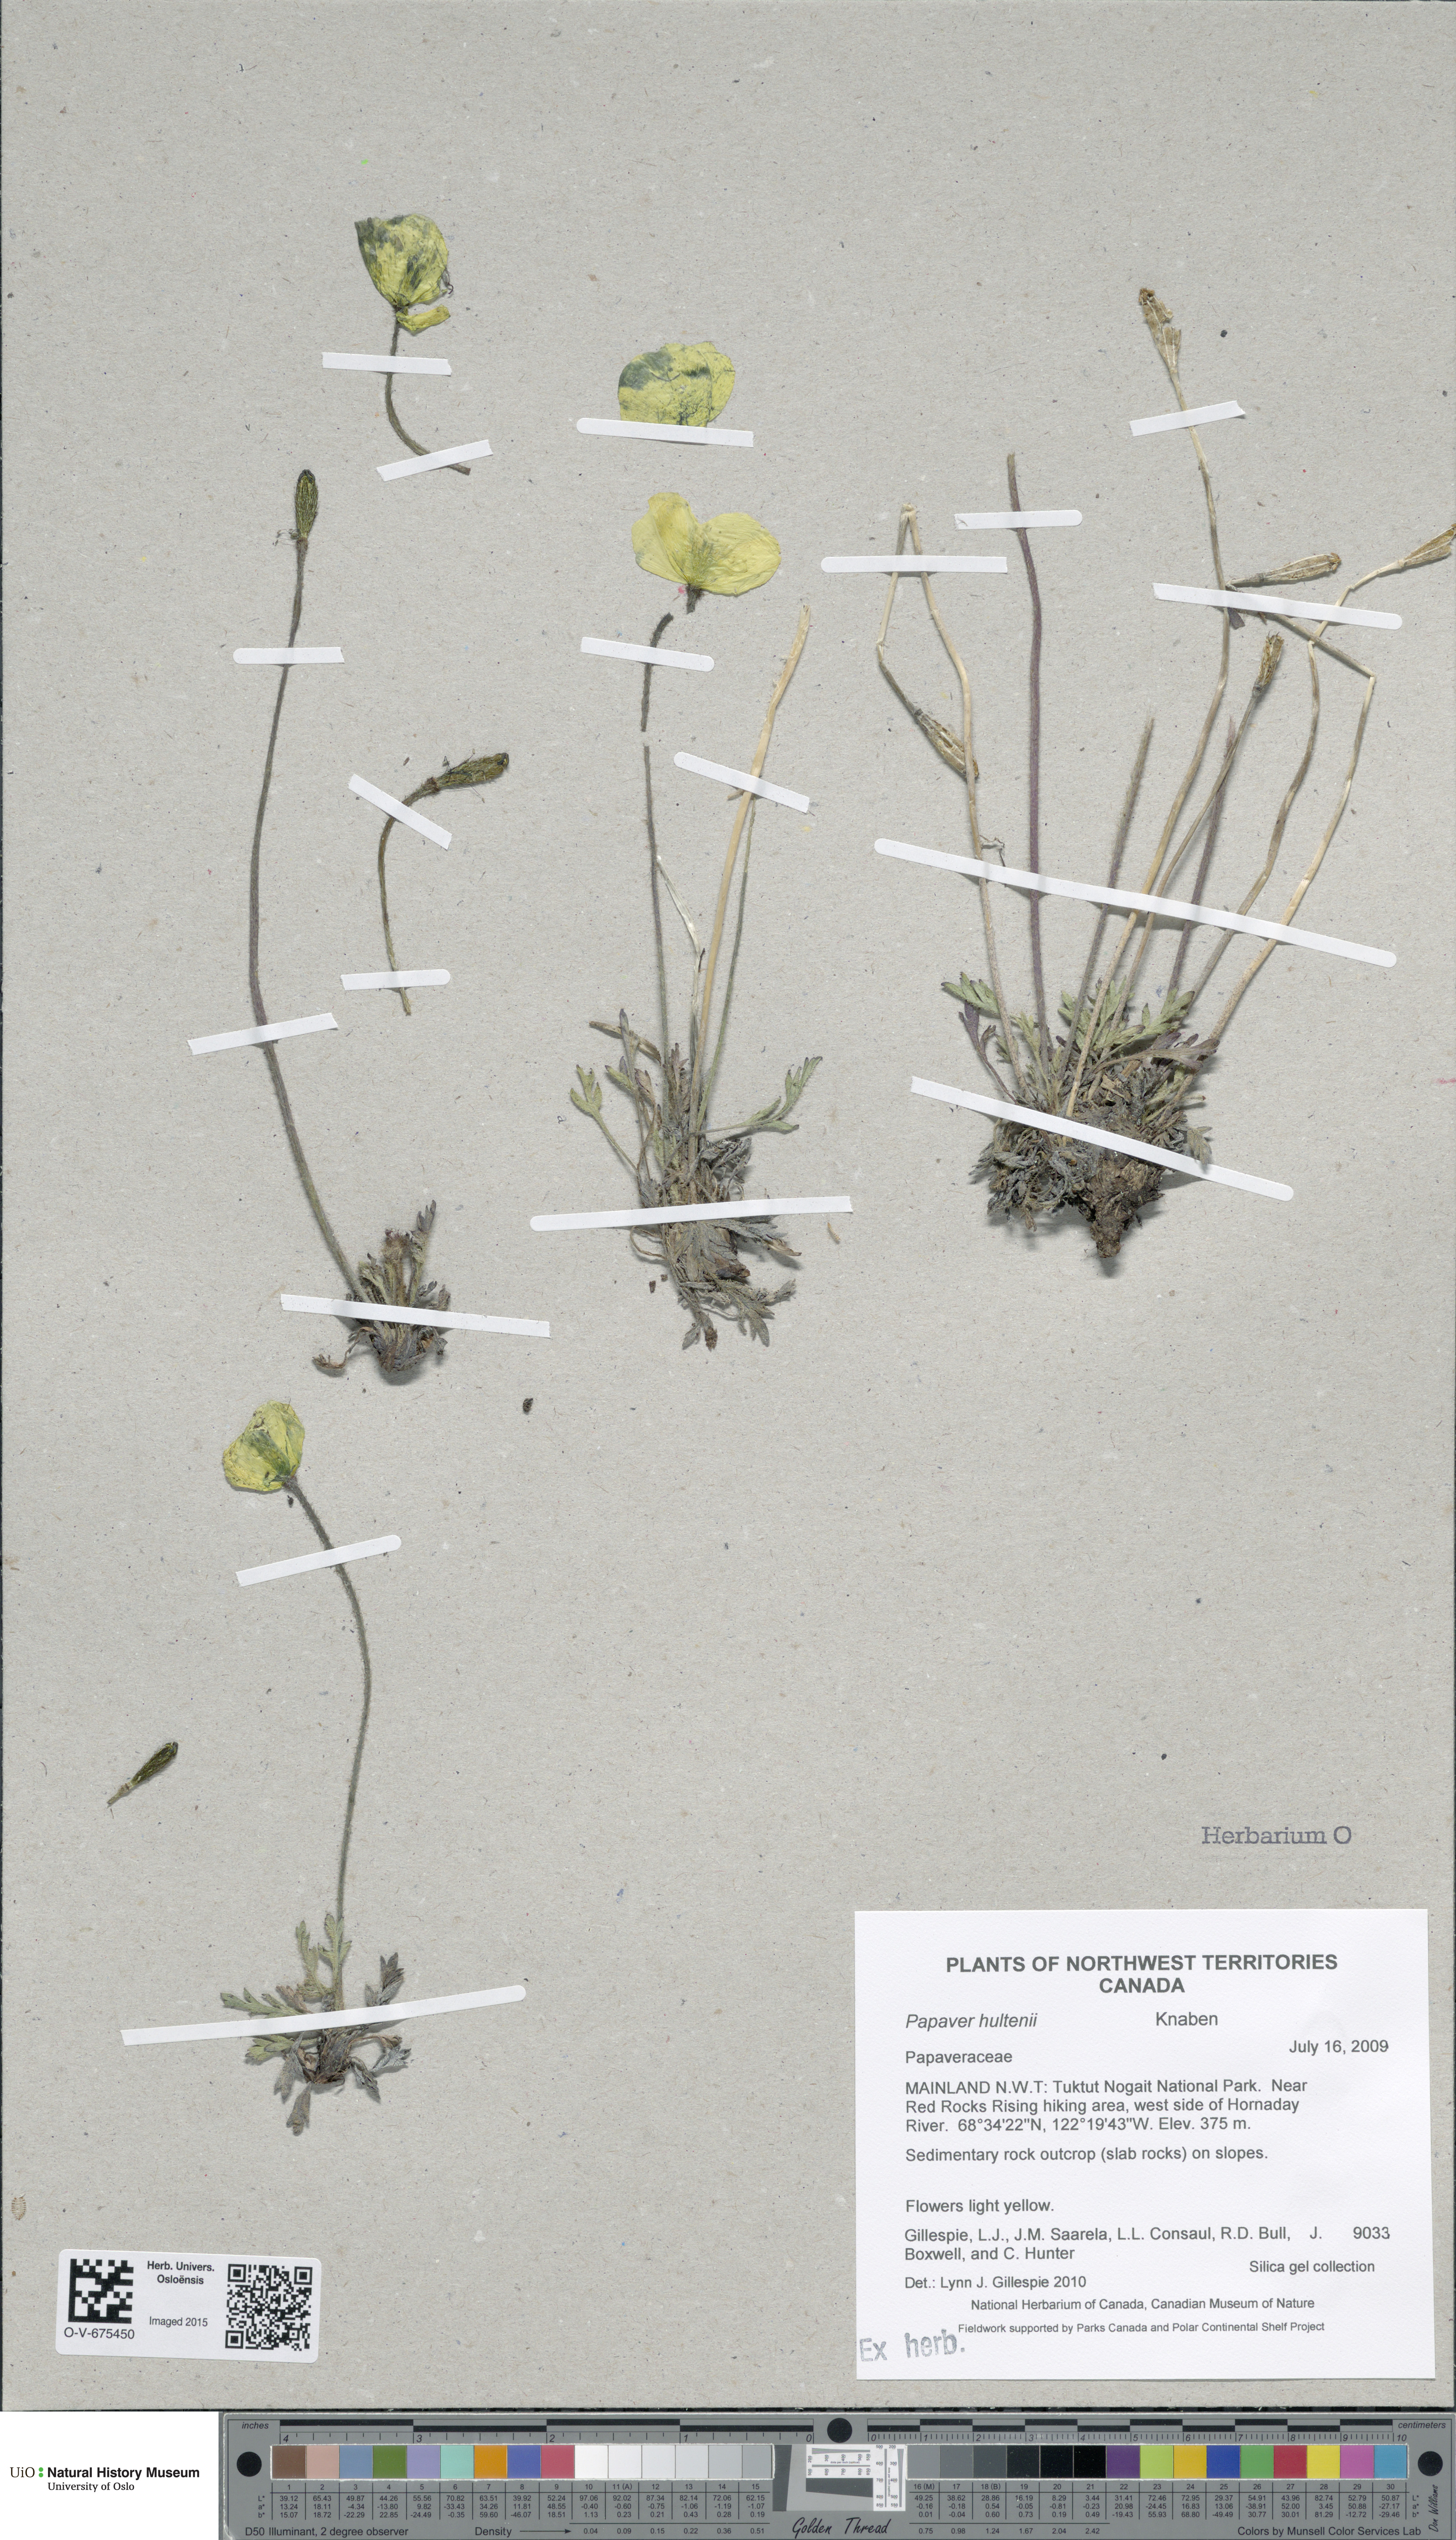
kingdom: Plantae
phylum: Tracheophyta
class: Magnoliopsida
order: Ranunculales
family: Papaveraceae
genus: Papaver
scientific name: Papaver lapponicum
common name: Lapland poppy
